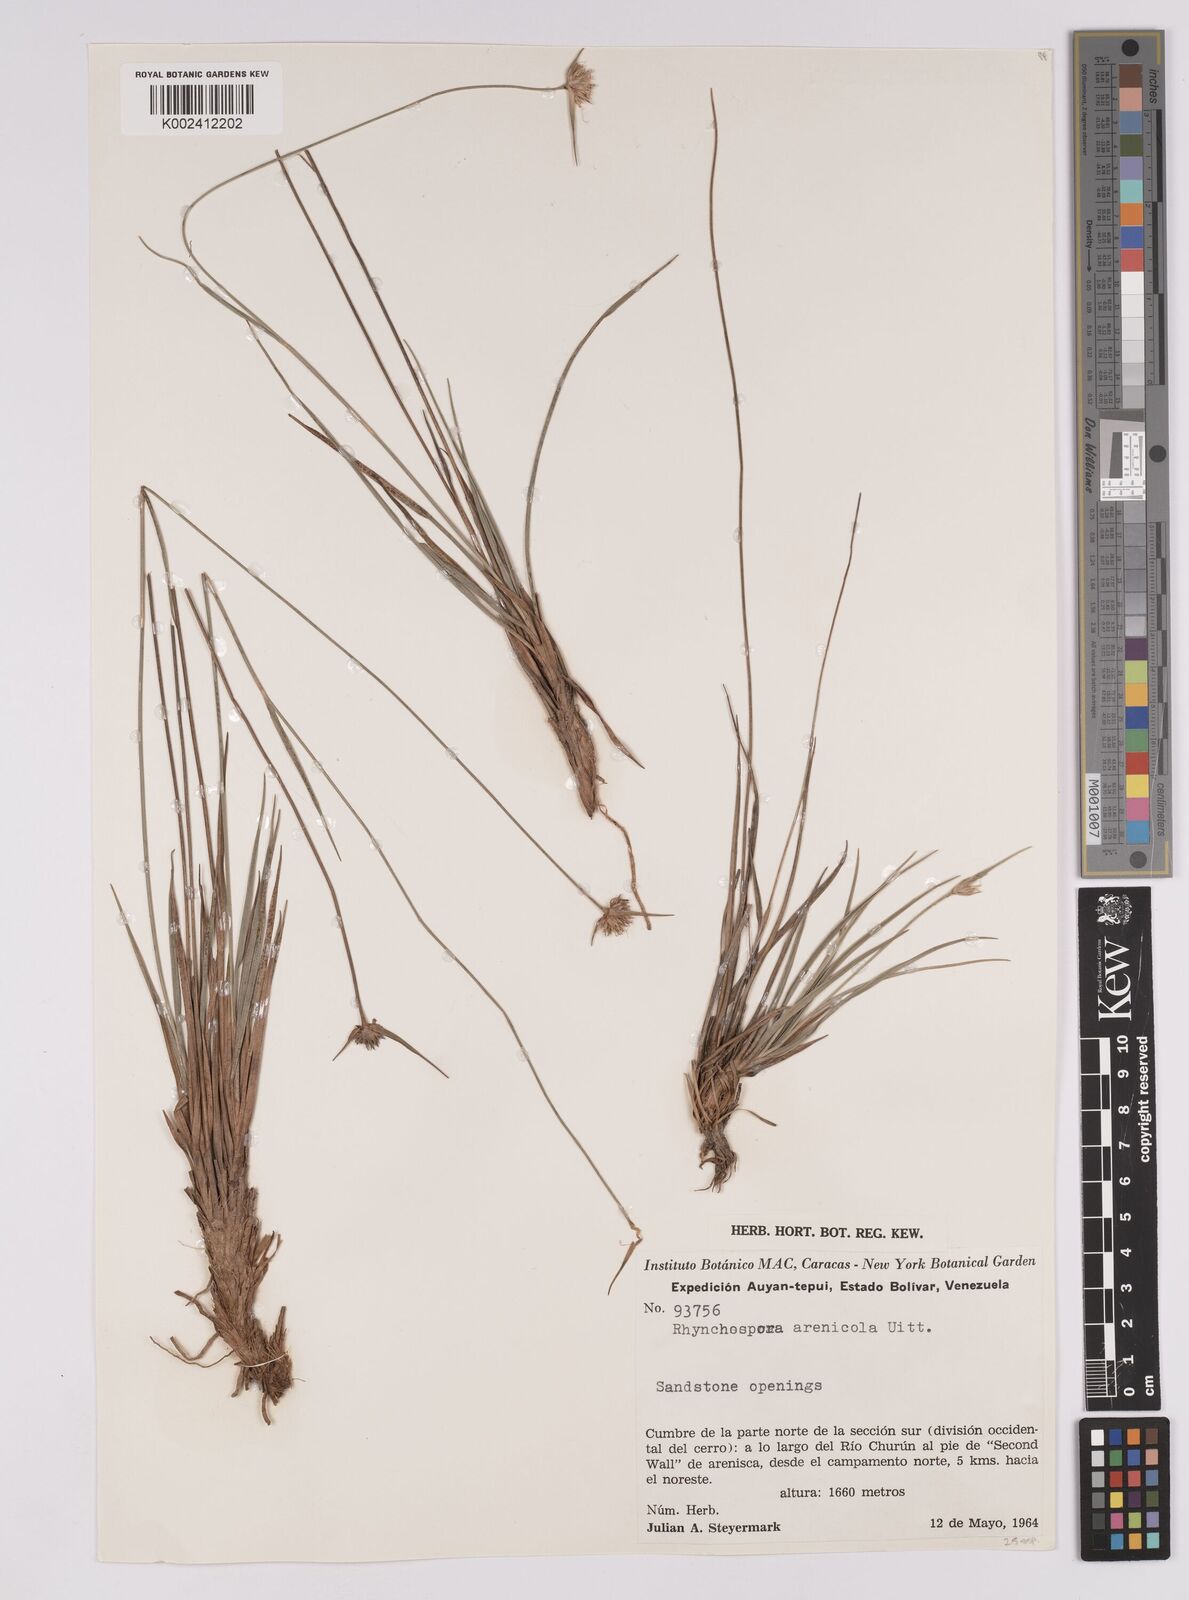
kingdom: Plantae
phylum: Tracheophyta
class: Liliopsida
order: Poales
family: Cyperaceae
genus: Rhynchospora
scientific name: Rhynchospora arenicola
